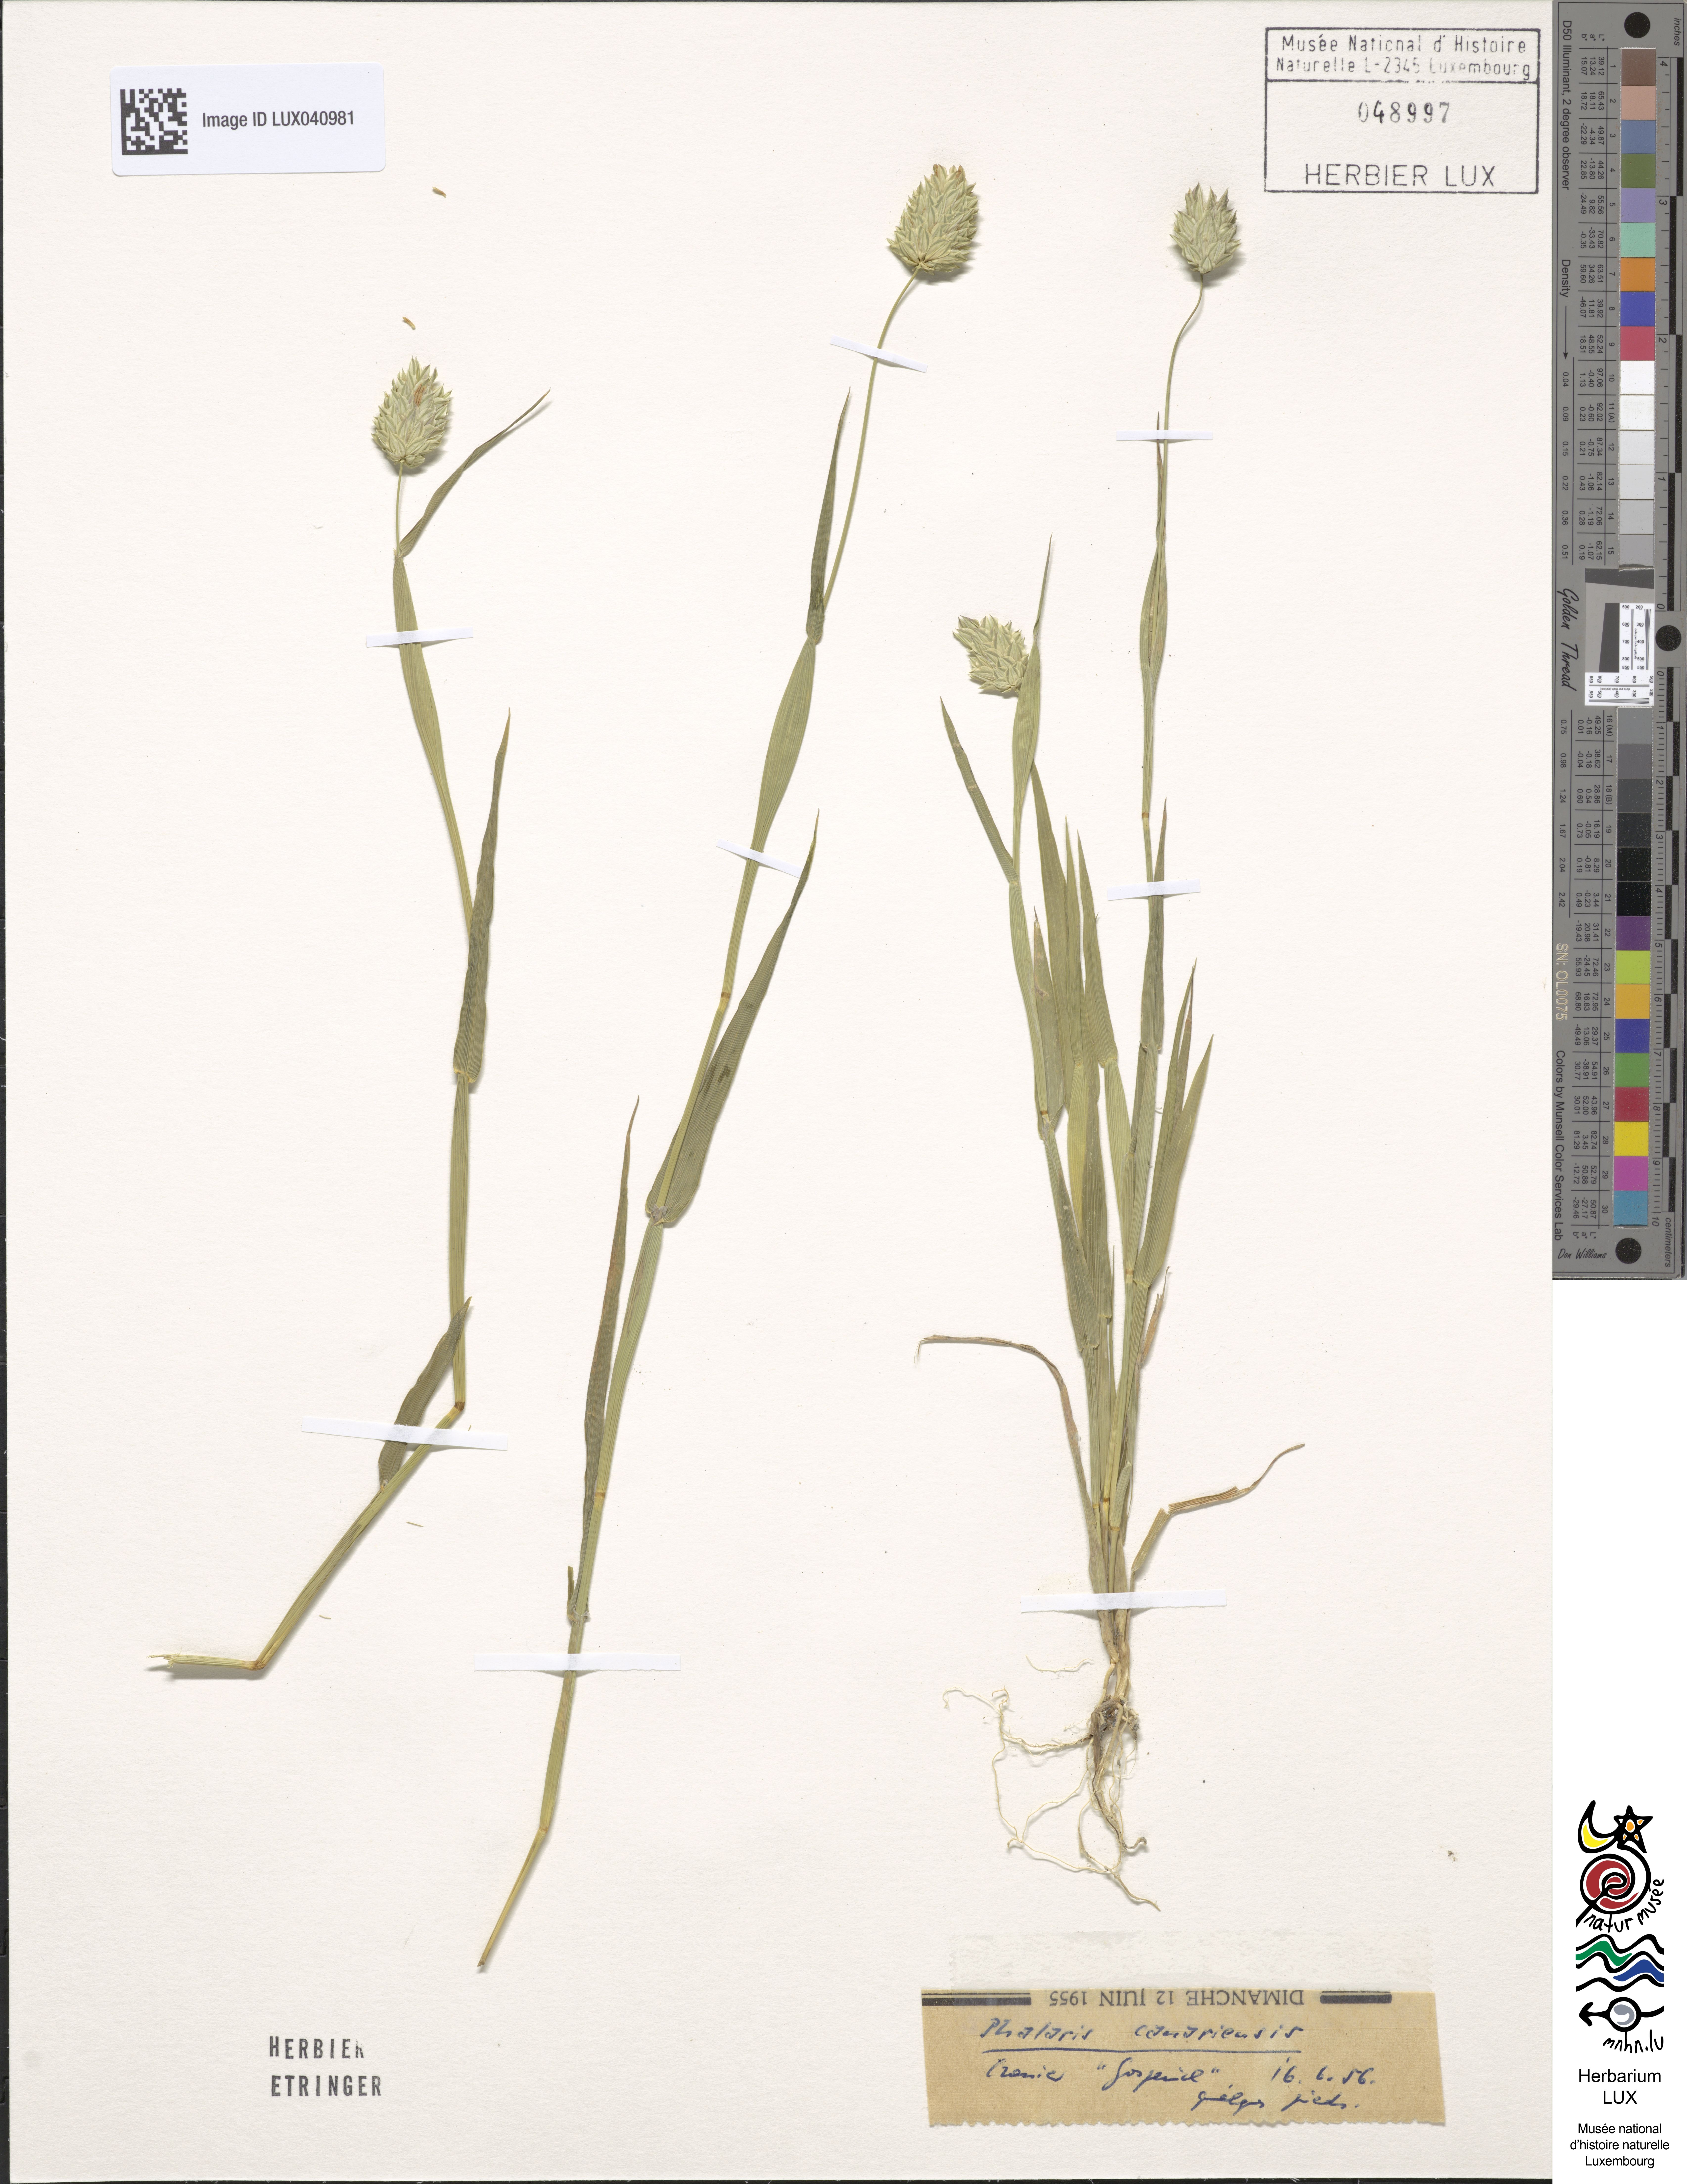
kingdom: Plantae
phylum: Tracheophyta
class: Liliopsida
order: Poales
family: Poaceae
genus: Phalaris
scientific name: Phalaris canariensis
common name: Annual canarygrass
